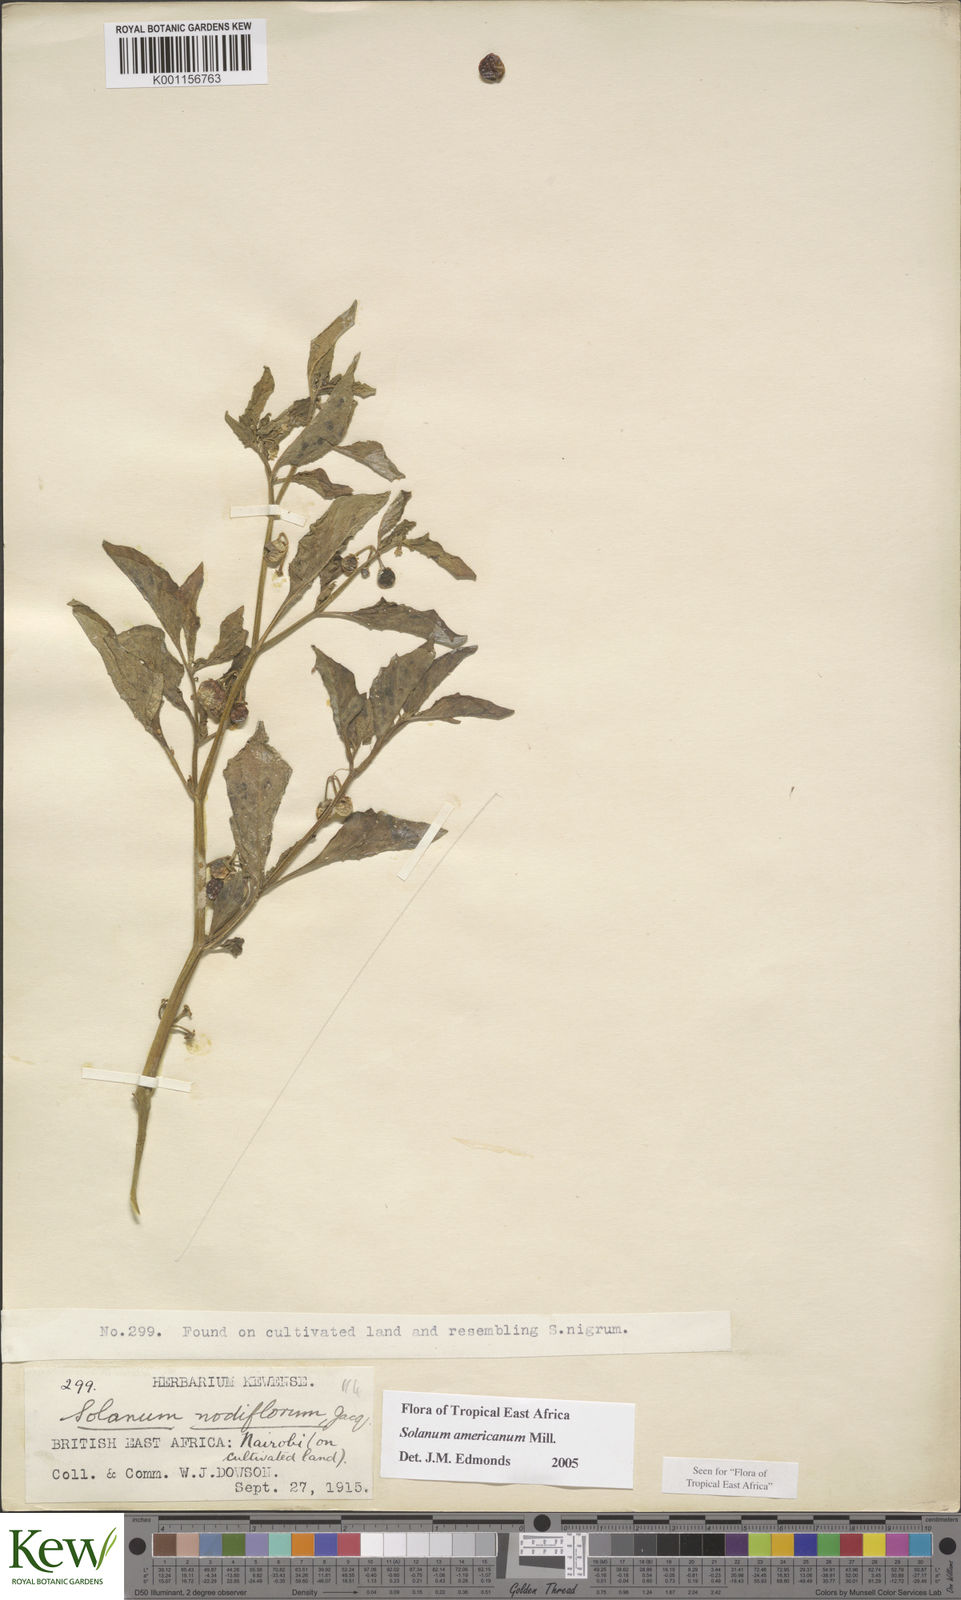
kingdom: Plantae
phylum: Tracheophyta
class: Magnoliopsida
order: Solanales
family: Solanaceae
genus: Solanum
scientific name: Solanum americanum
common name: American black nightshade
